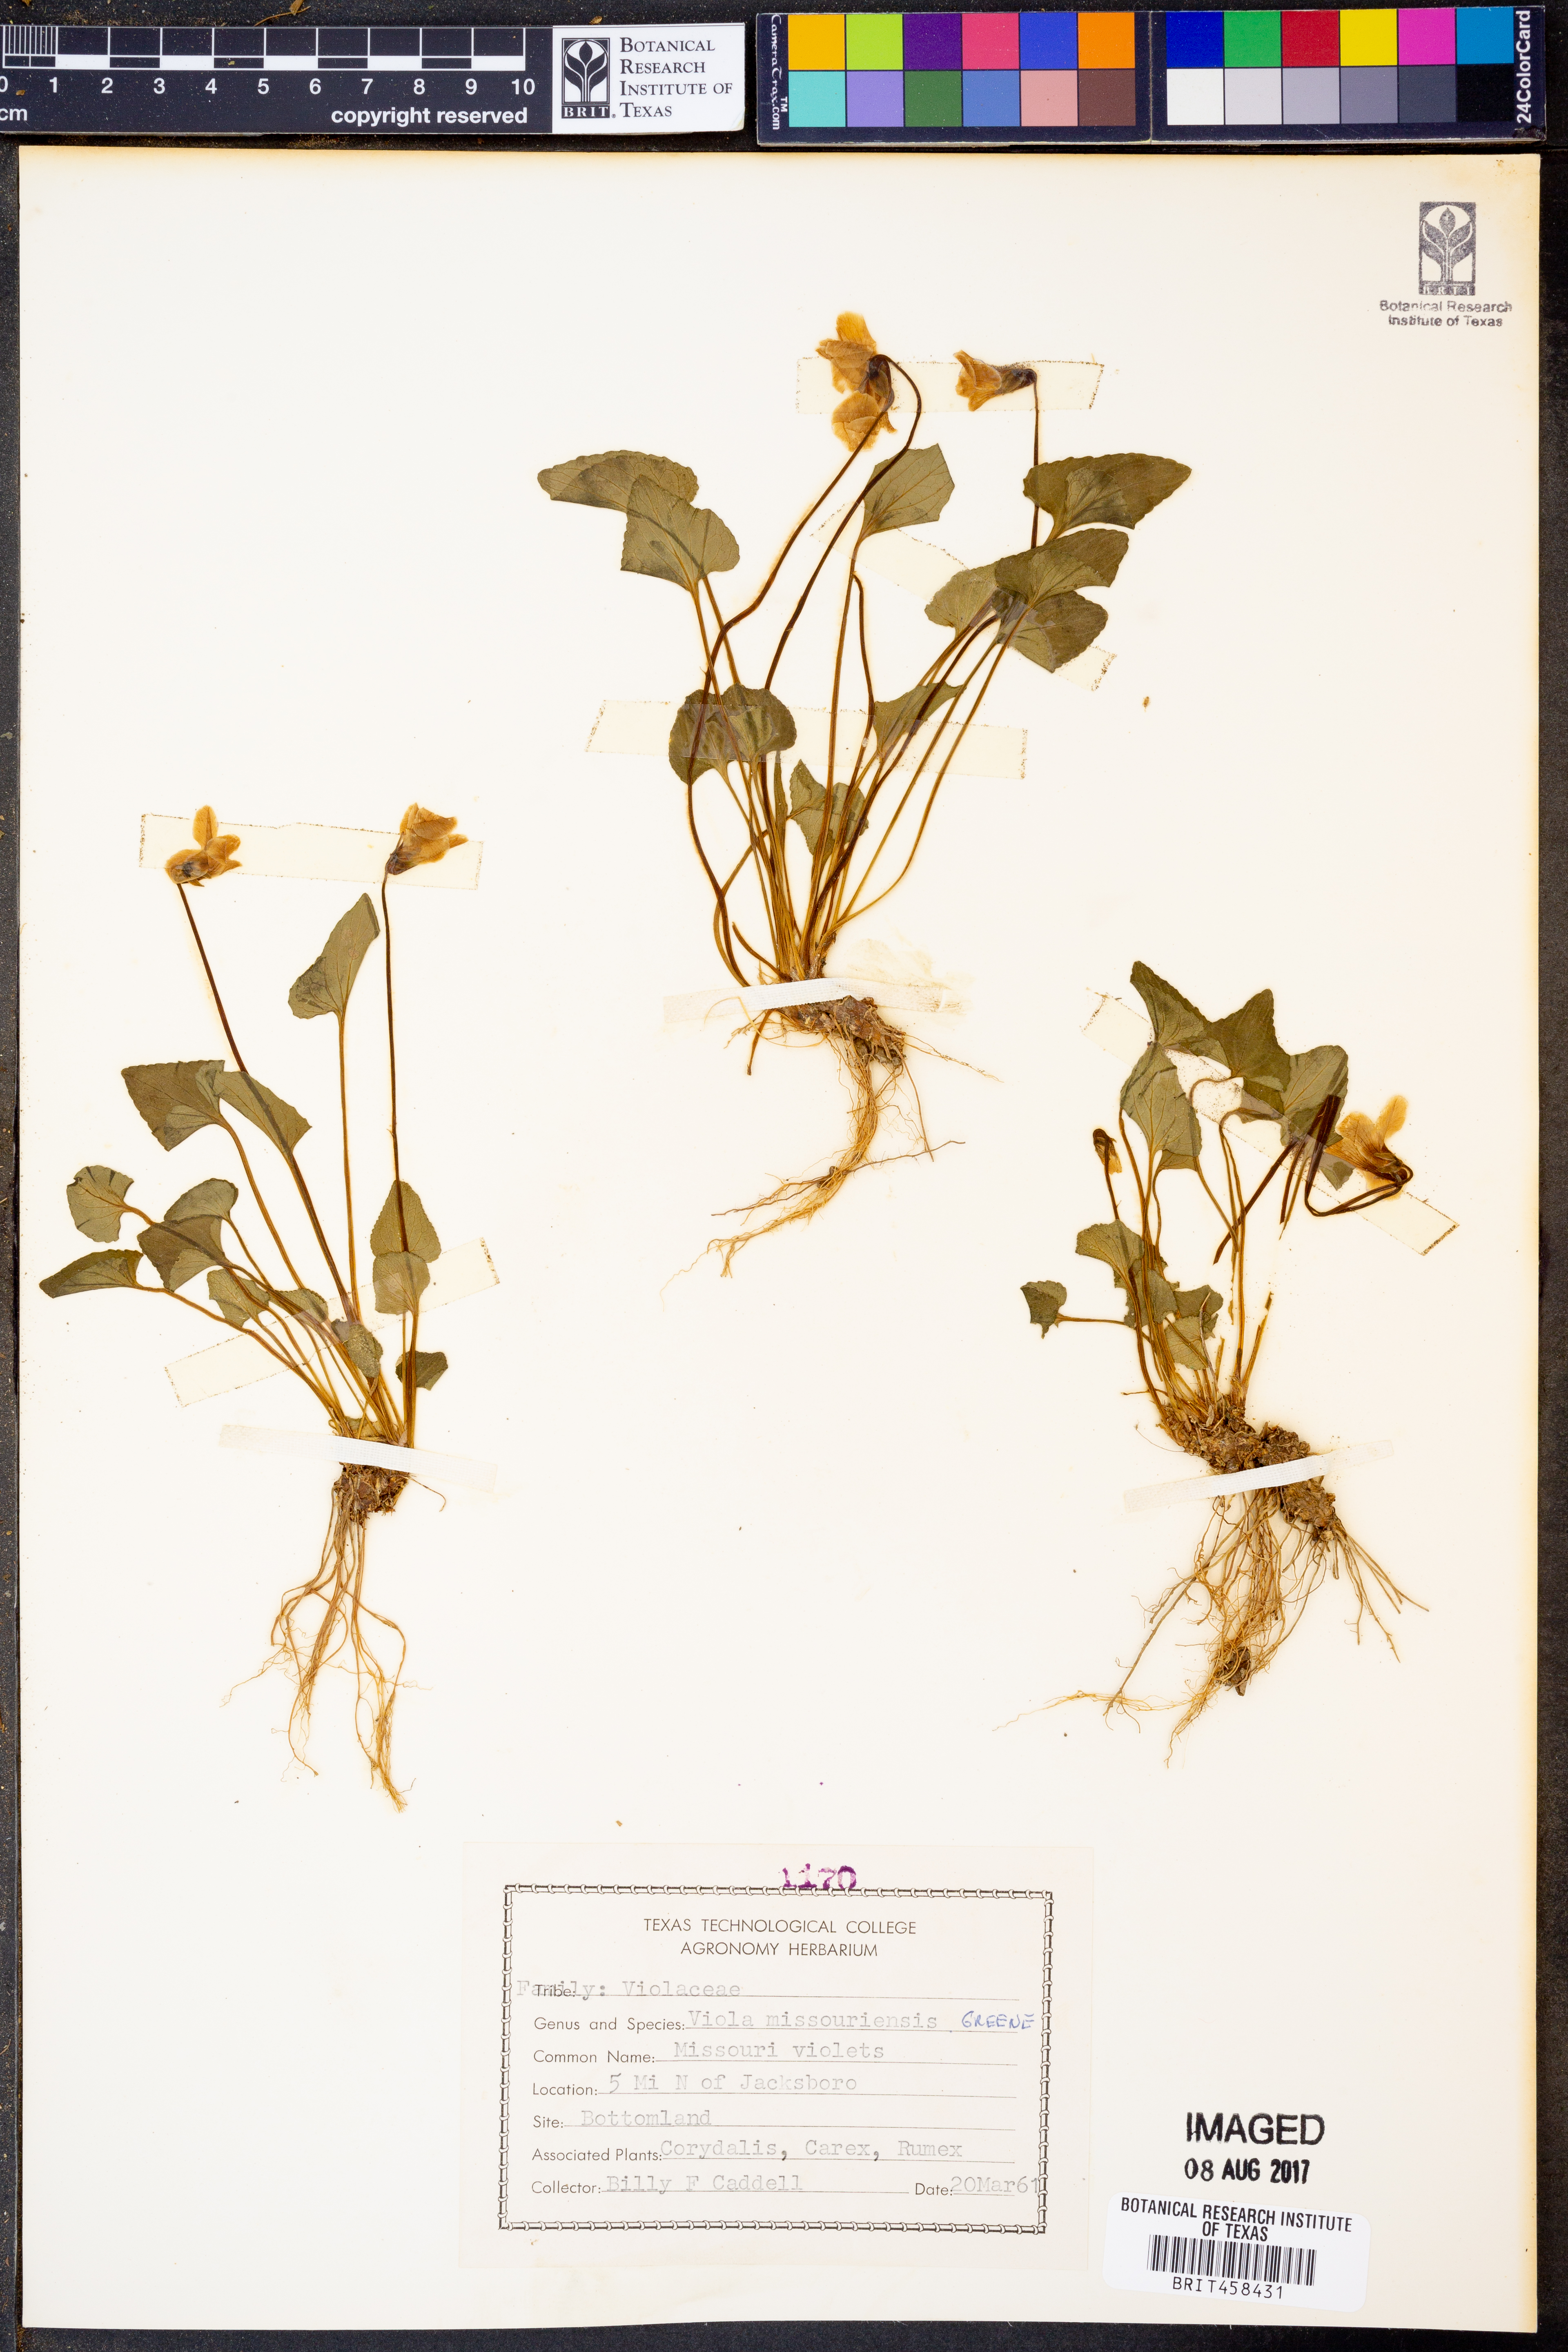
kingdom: Plantae
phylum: Tracheophyta
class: Magnoliopsida
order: Malpighiales
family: Violaceae
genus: Viola
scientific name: Viola missouriensis
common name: Missouri violet
